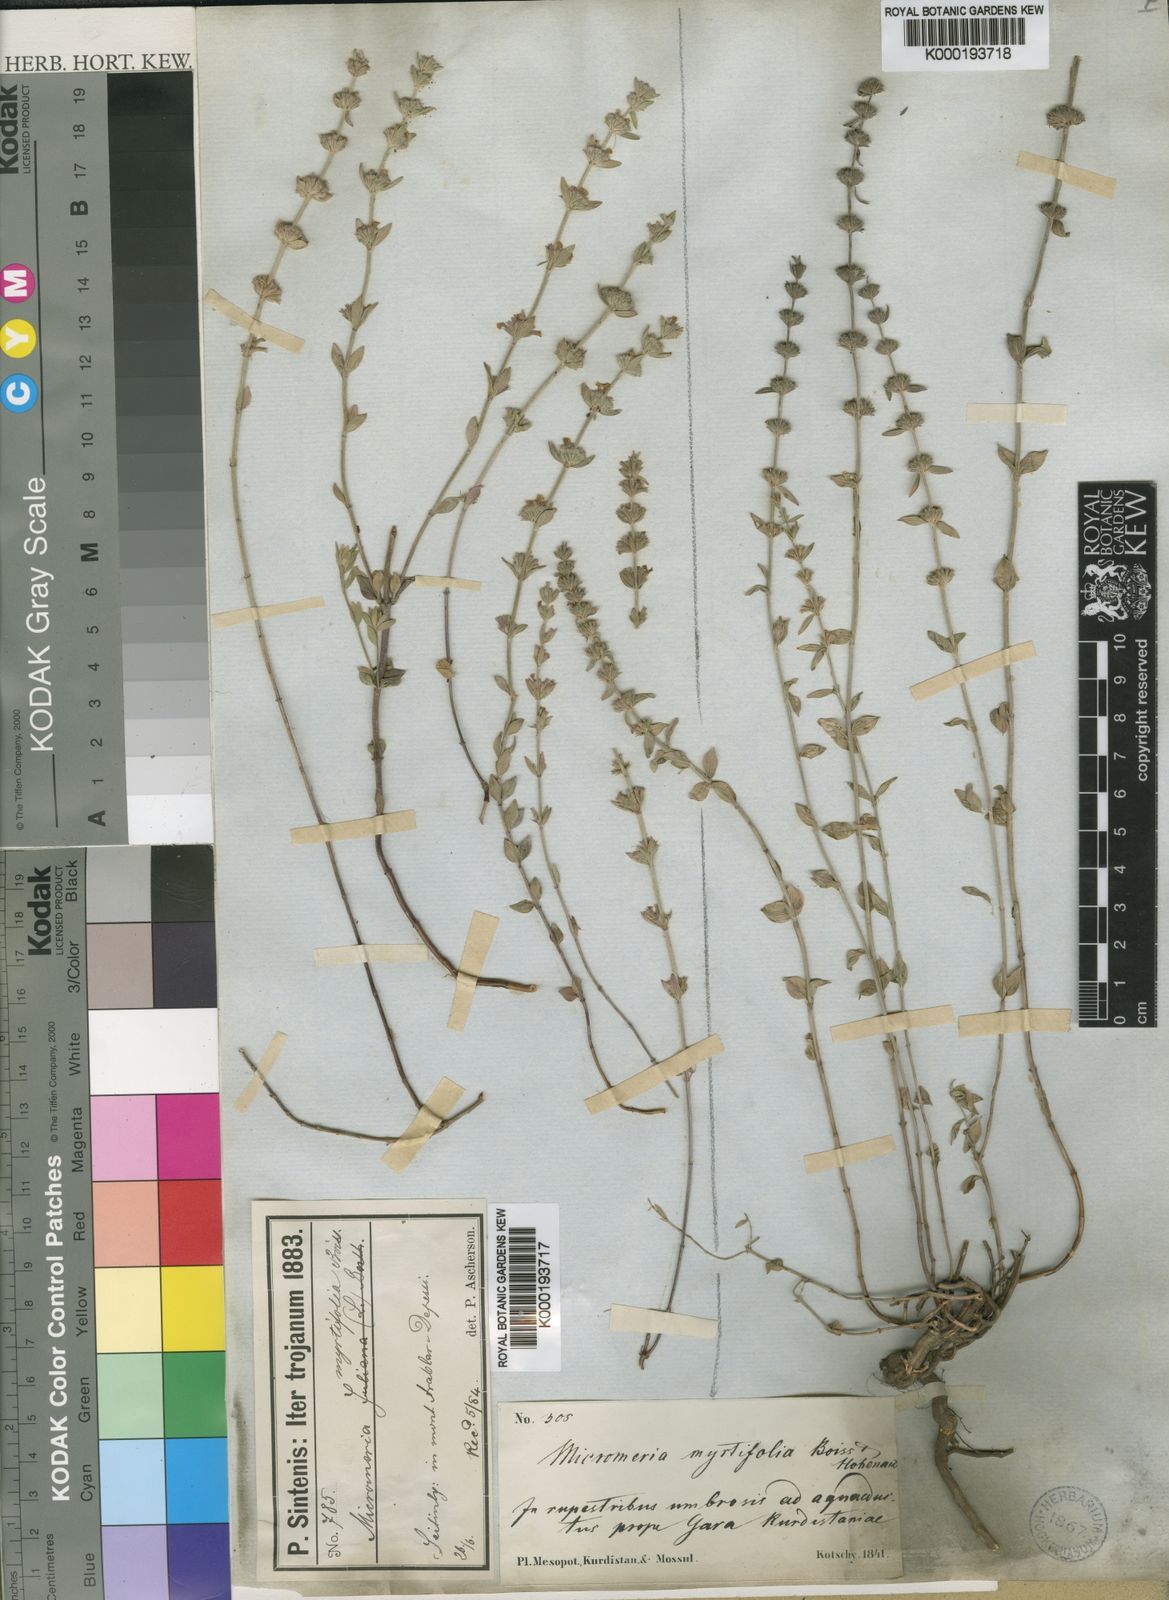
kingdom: Plantae
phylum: Tracheophyta
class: Magnoliopsida
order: Lamiales
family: Lamiaceae
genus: Micromeria
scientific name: Micromeria myrtifolia
